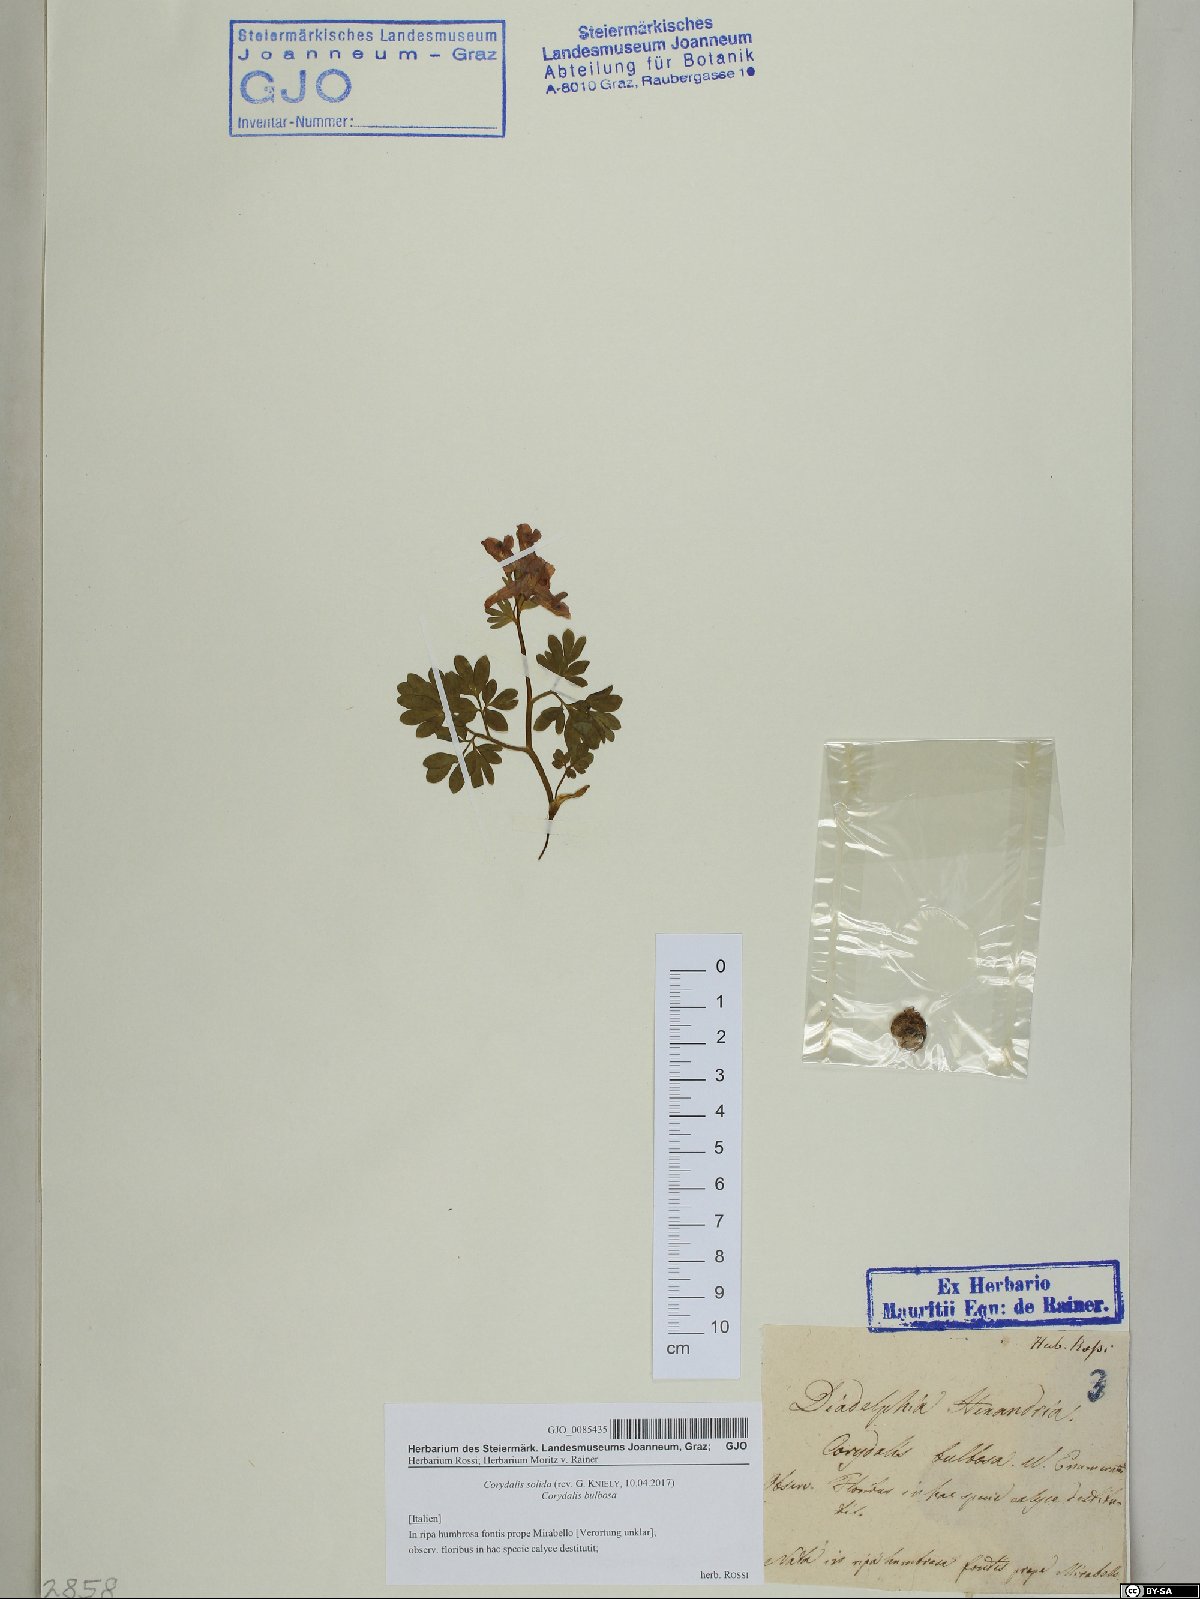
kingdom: Plantae
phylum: Tracheophyta
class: Magnoliopsida
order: Ranunculales
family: Papaveraceae
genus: Corydalis
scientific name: Corydalis solida
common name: Bird-in-a-bush
